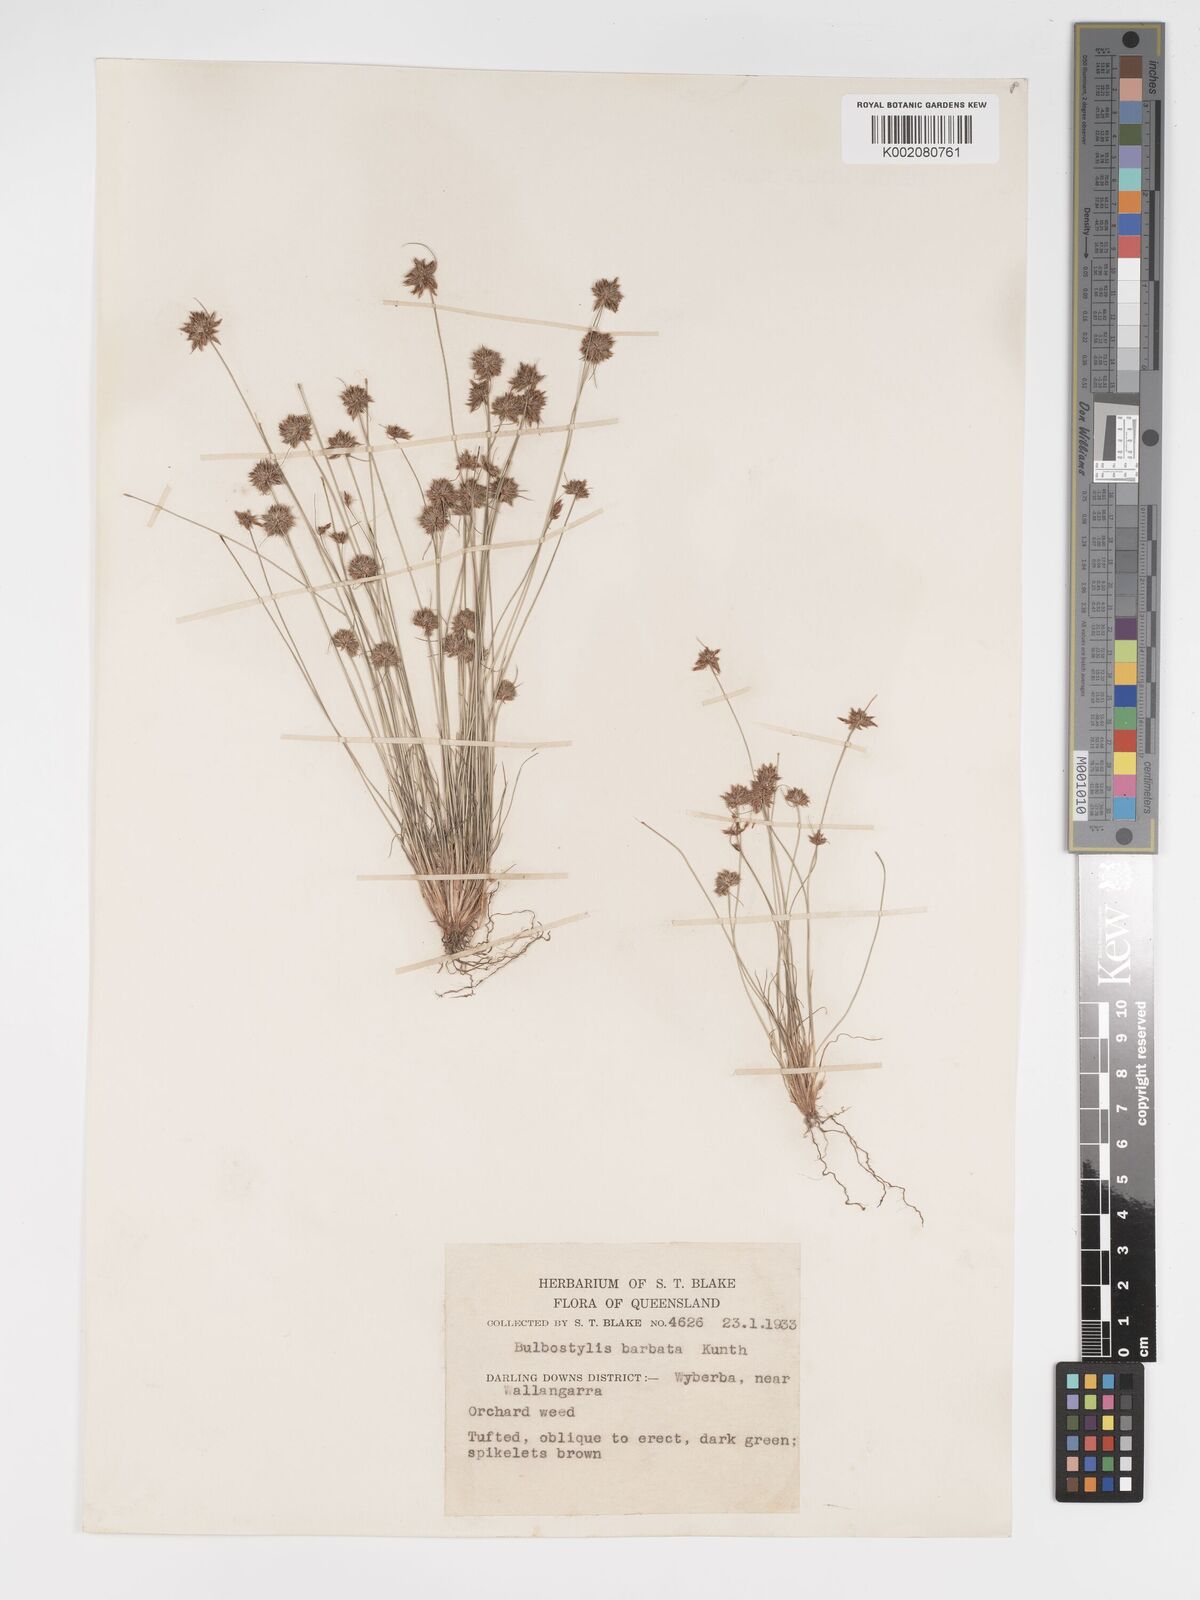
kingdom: Plantae
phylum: Tracheophyta
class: Liliopsida
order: Poales
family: Cyperaceae
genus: Bulbostylis
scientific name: Bulbostylis barbata
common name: Watergrass
